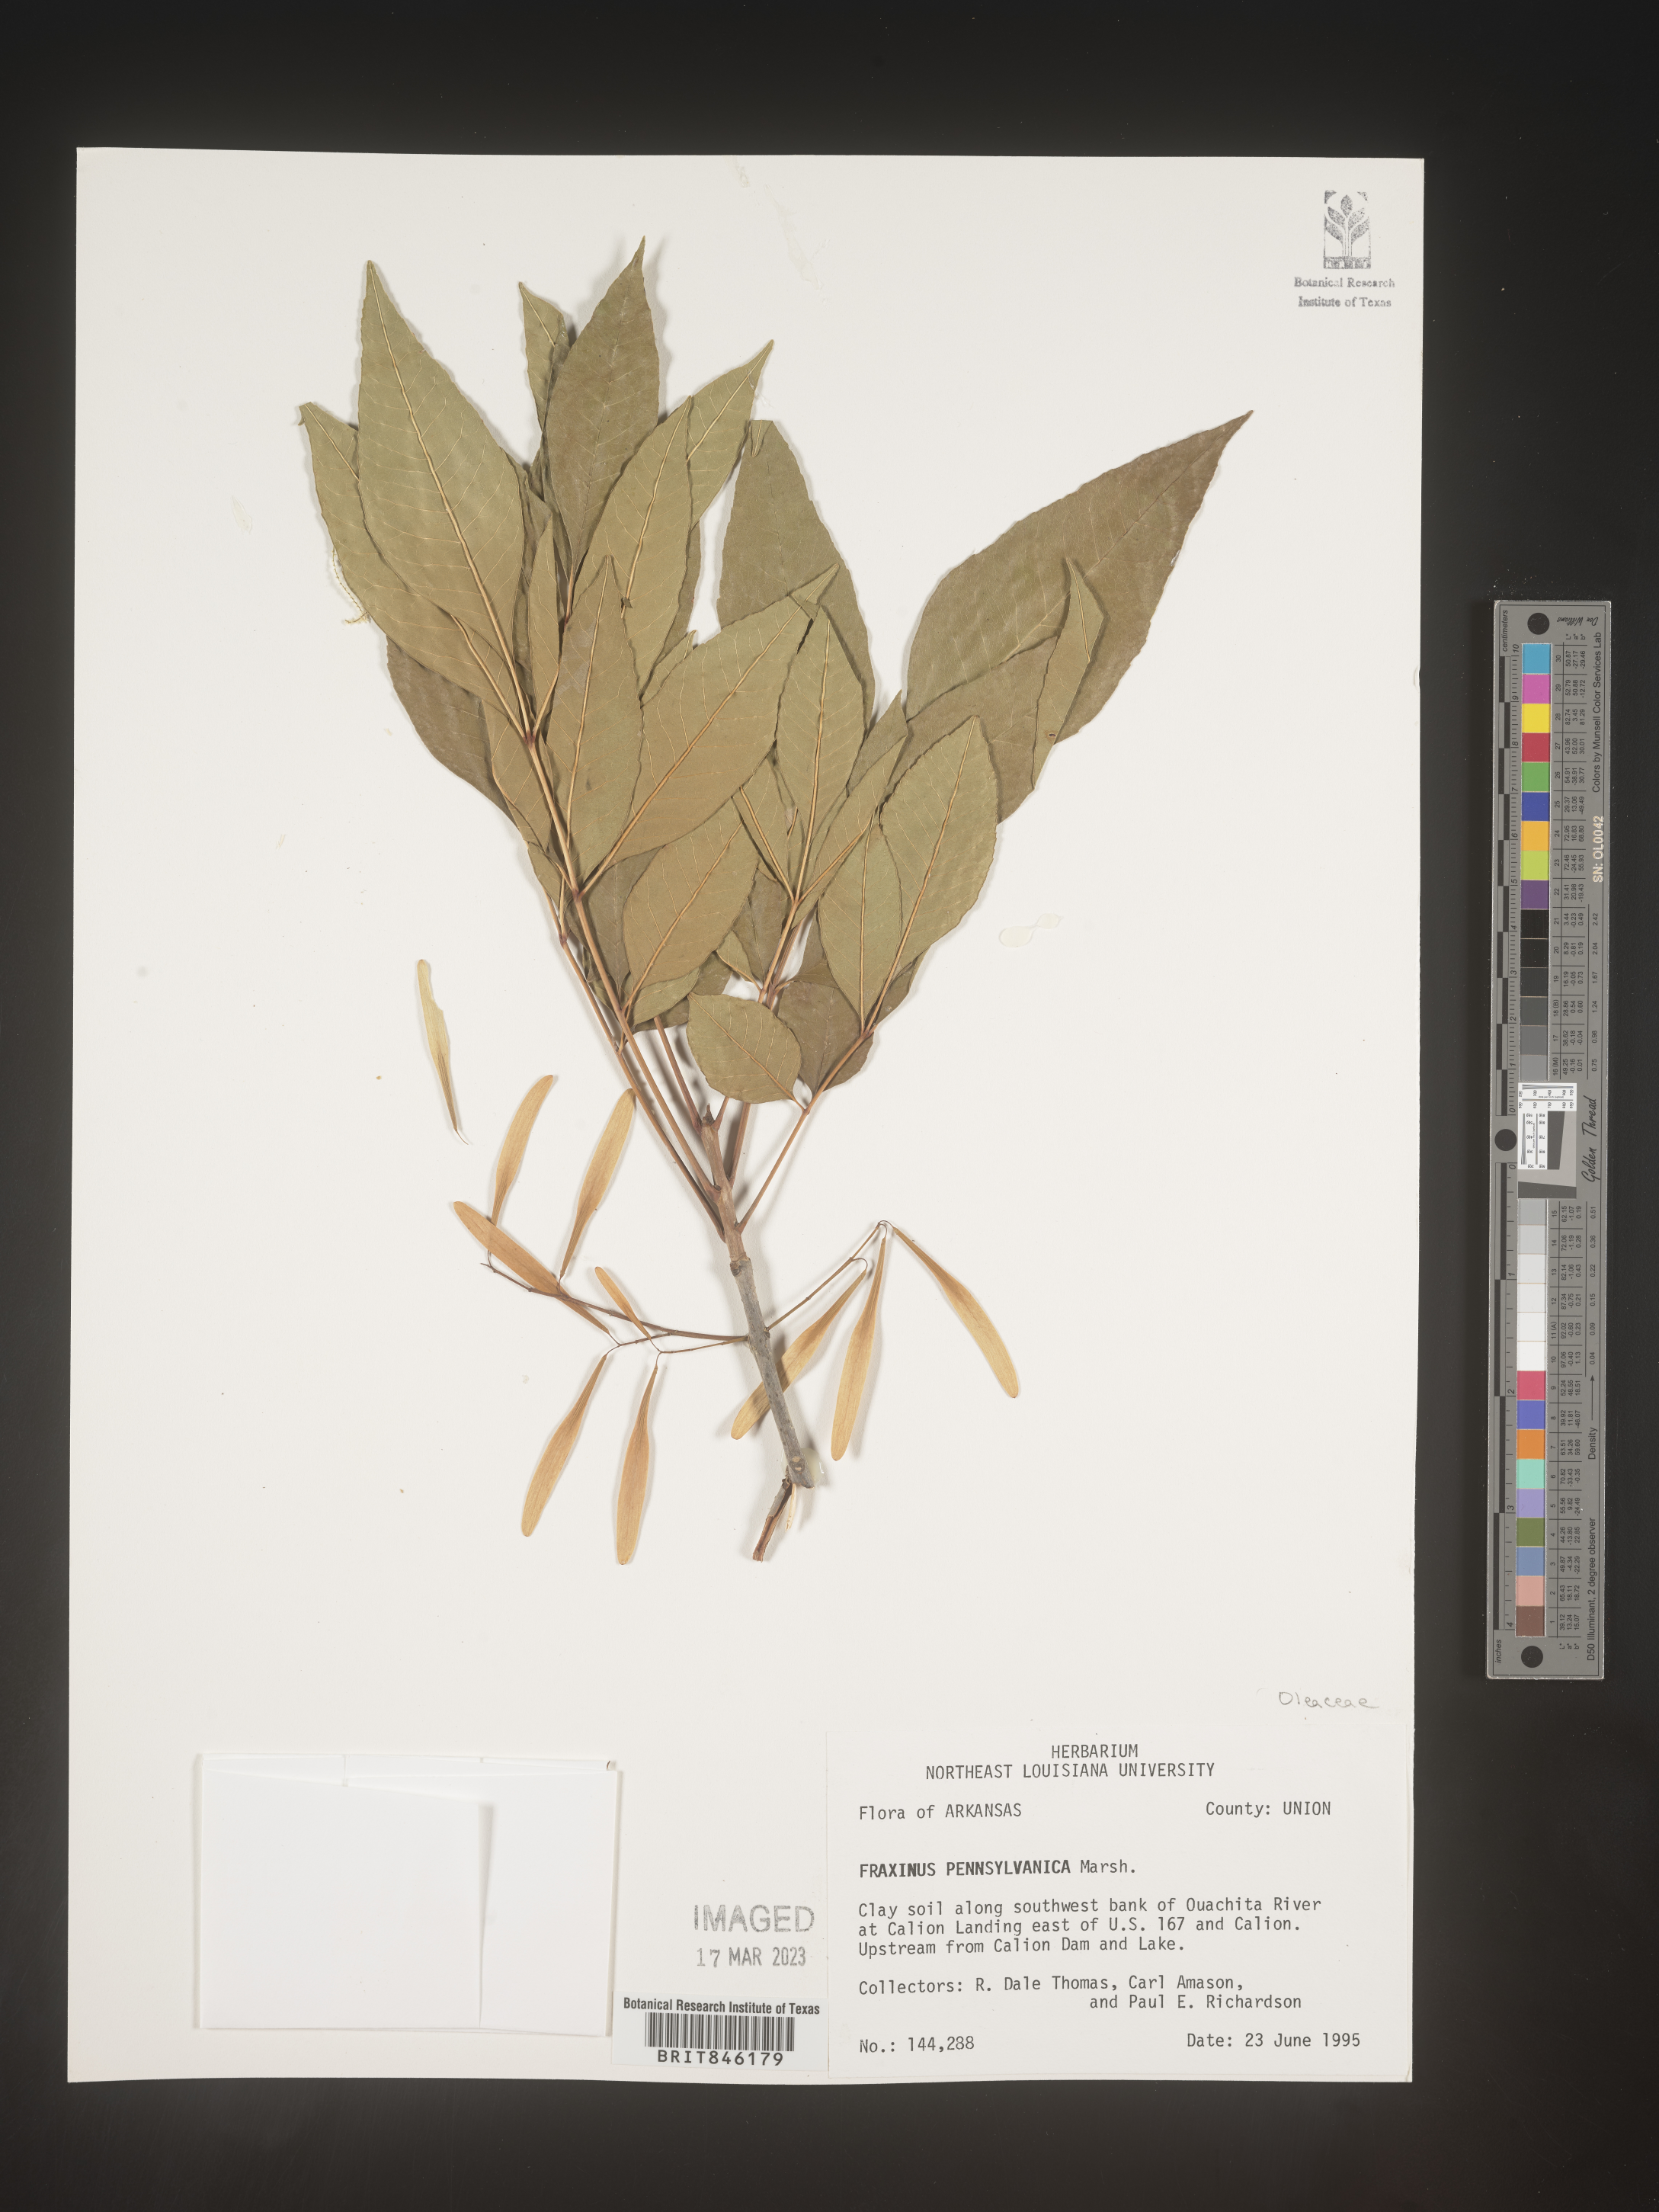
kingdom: Plantae
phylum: Tracheophyta
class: Magnoliopsida
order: Lamiales
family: Oleaceae
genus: Fraxinus
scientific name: Fraxinus pennsylvanica
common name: Green ash
